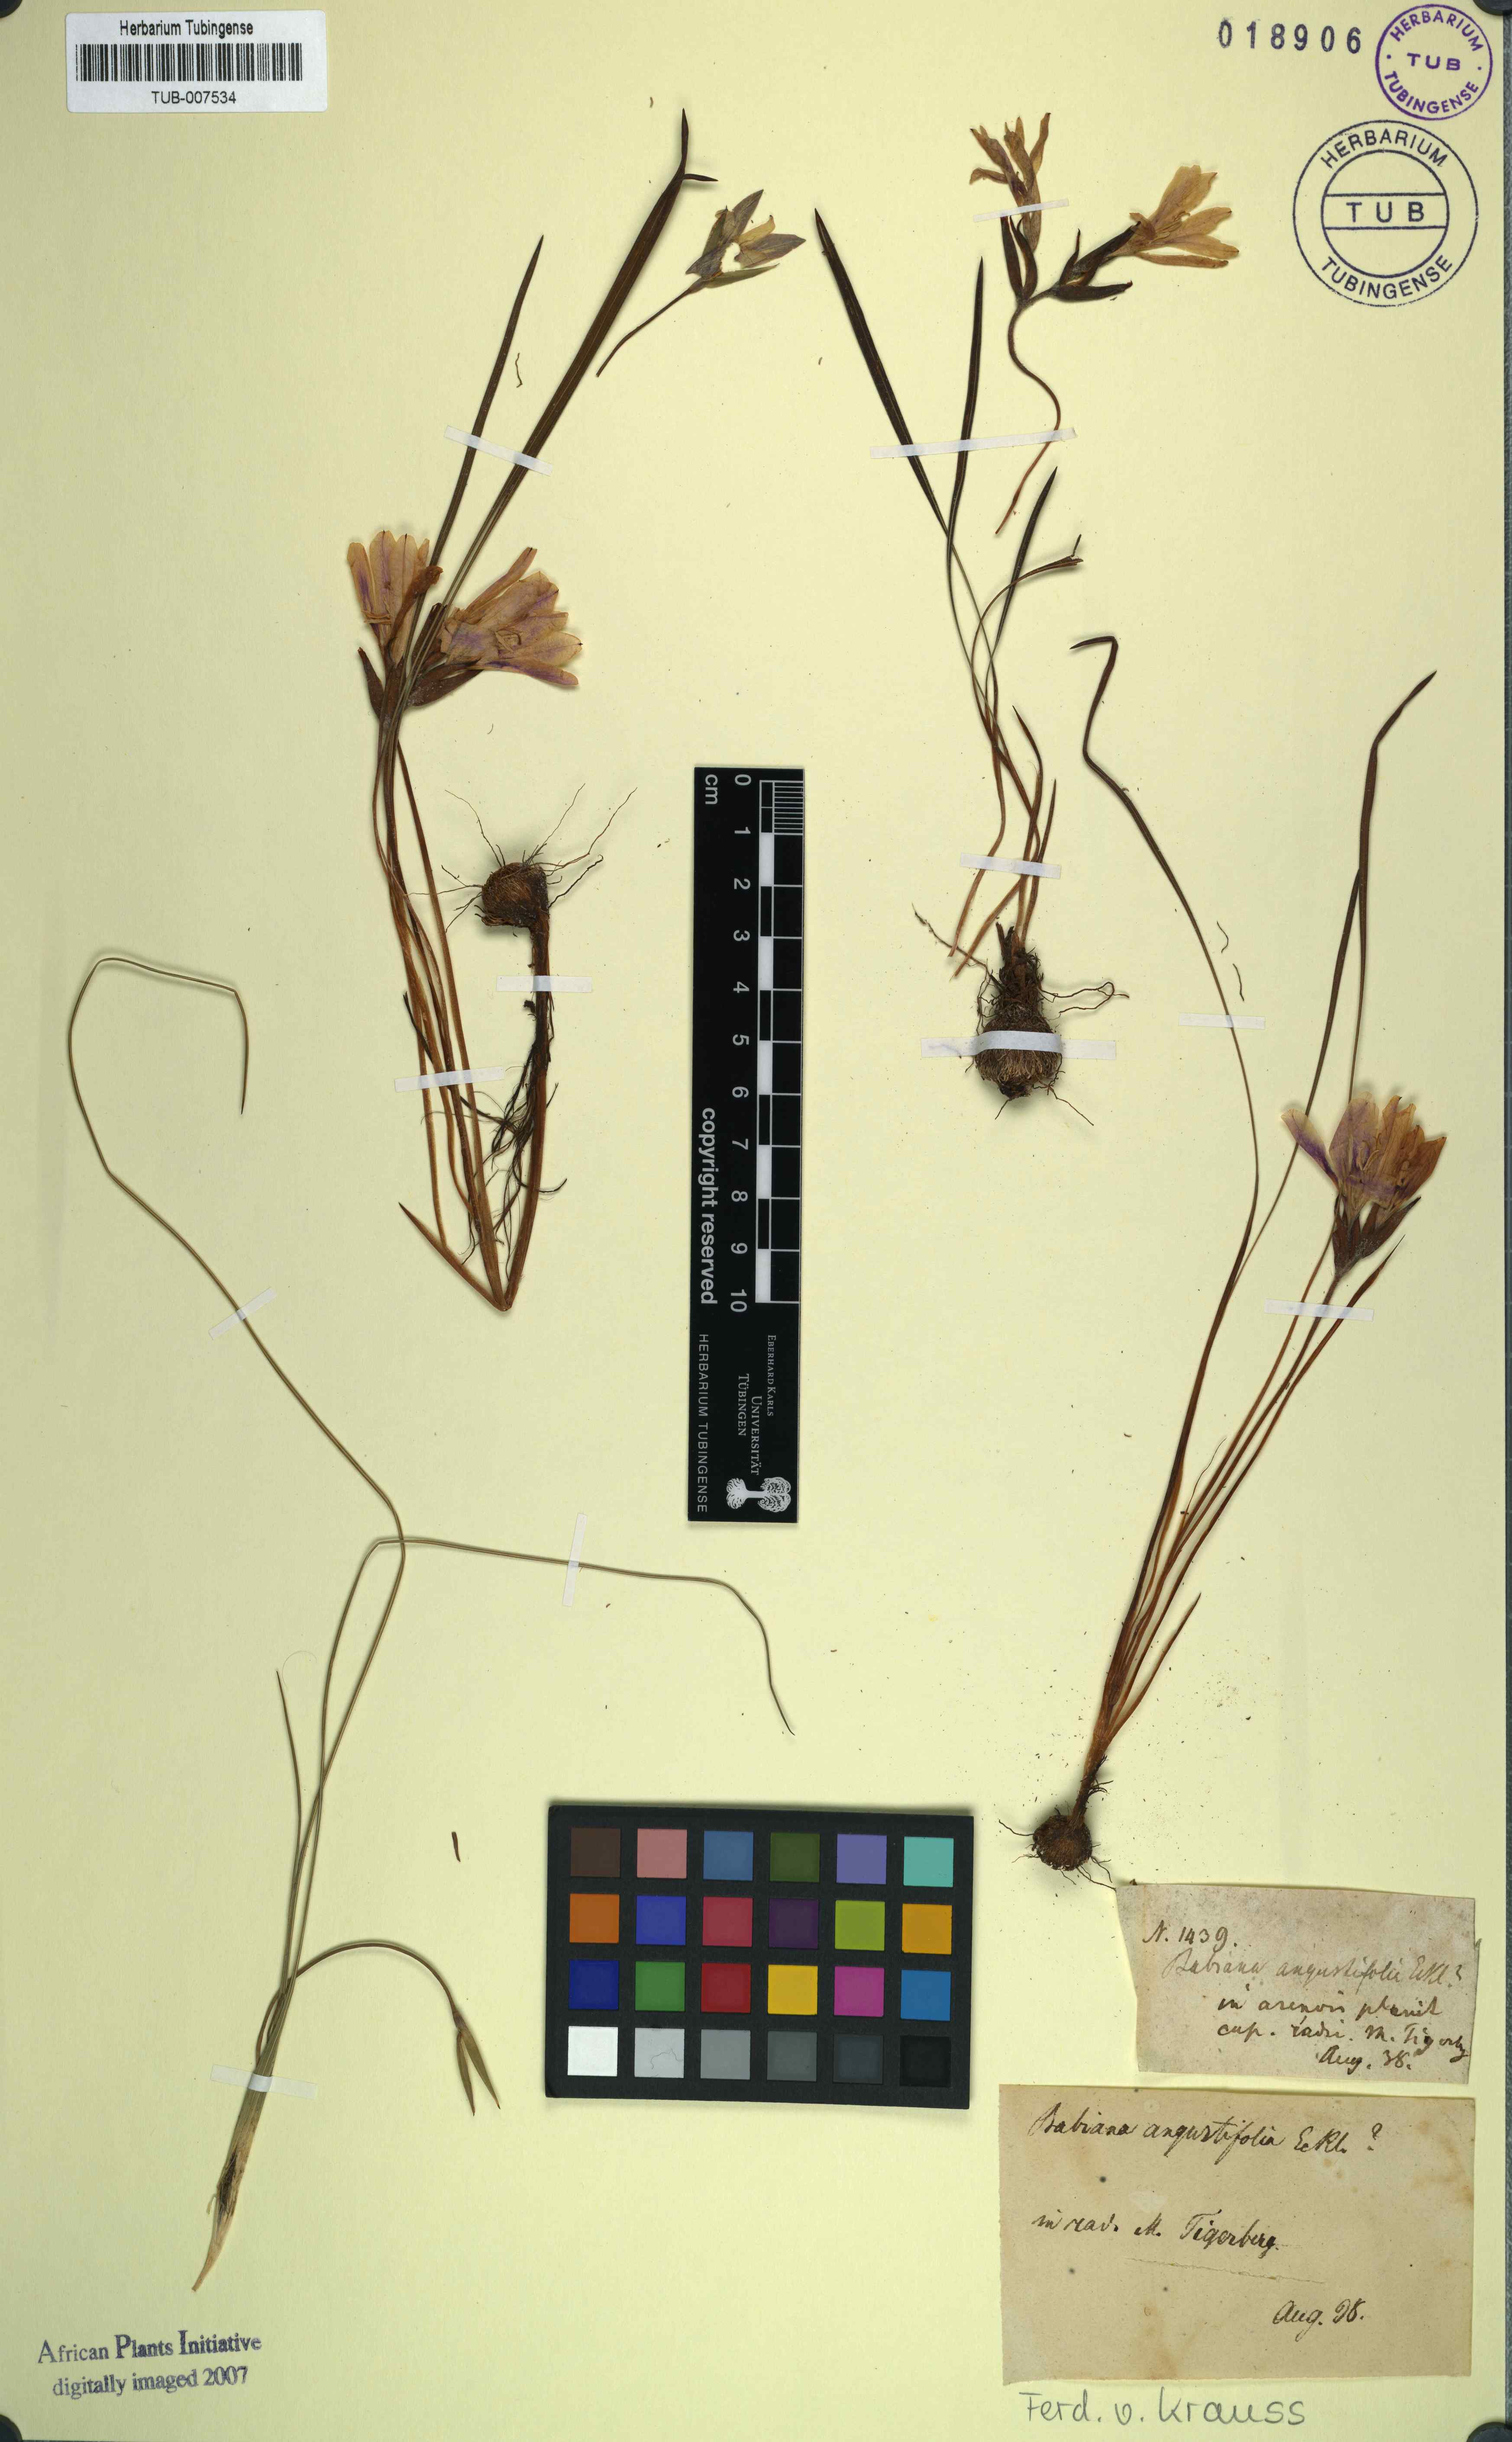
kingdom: Plantae
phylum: Tracheophyta
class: Liliopsida
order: Asparagales
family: Iridaceae
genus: Babiana
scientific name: Babiana angustifolia
